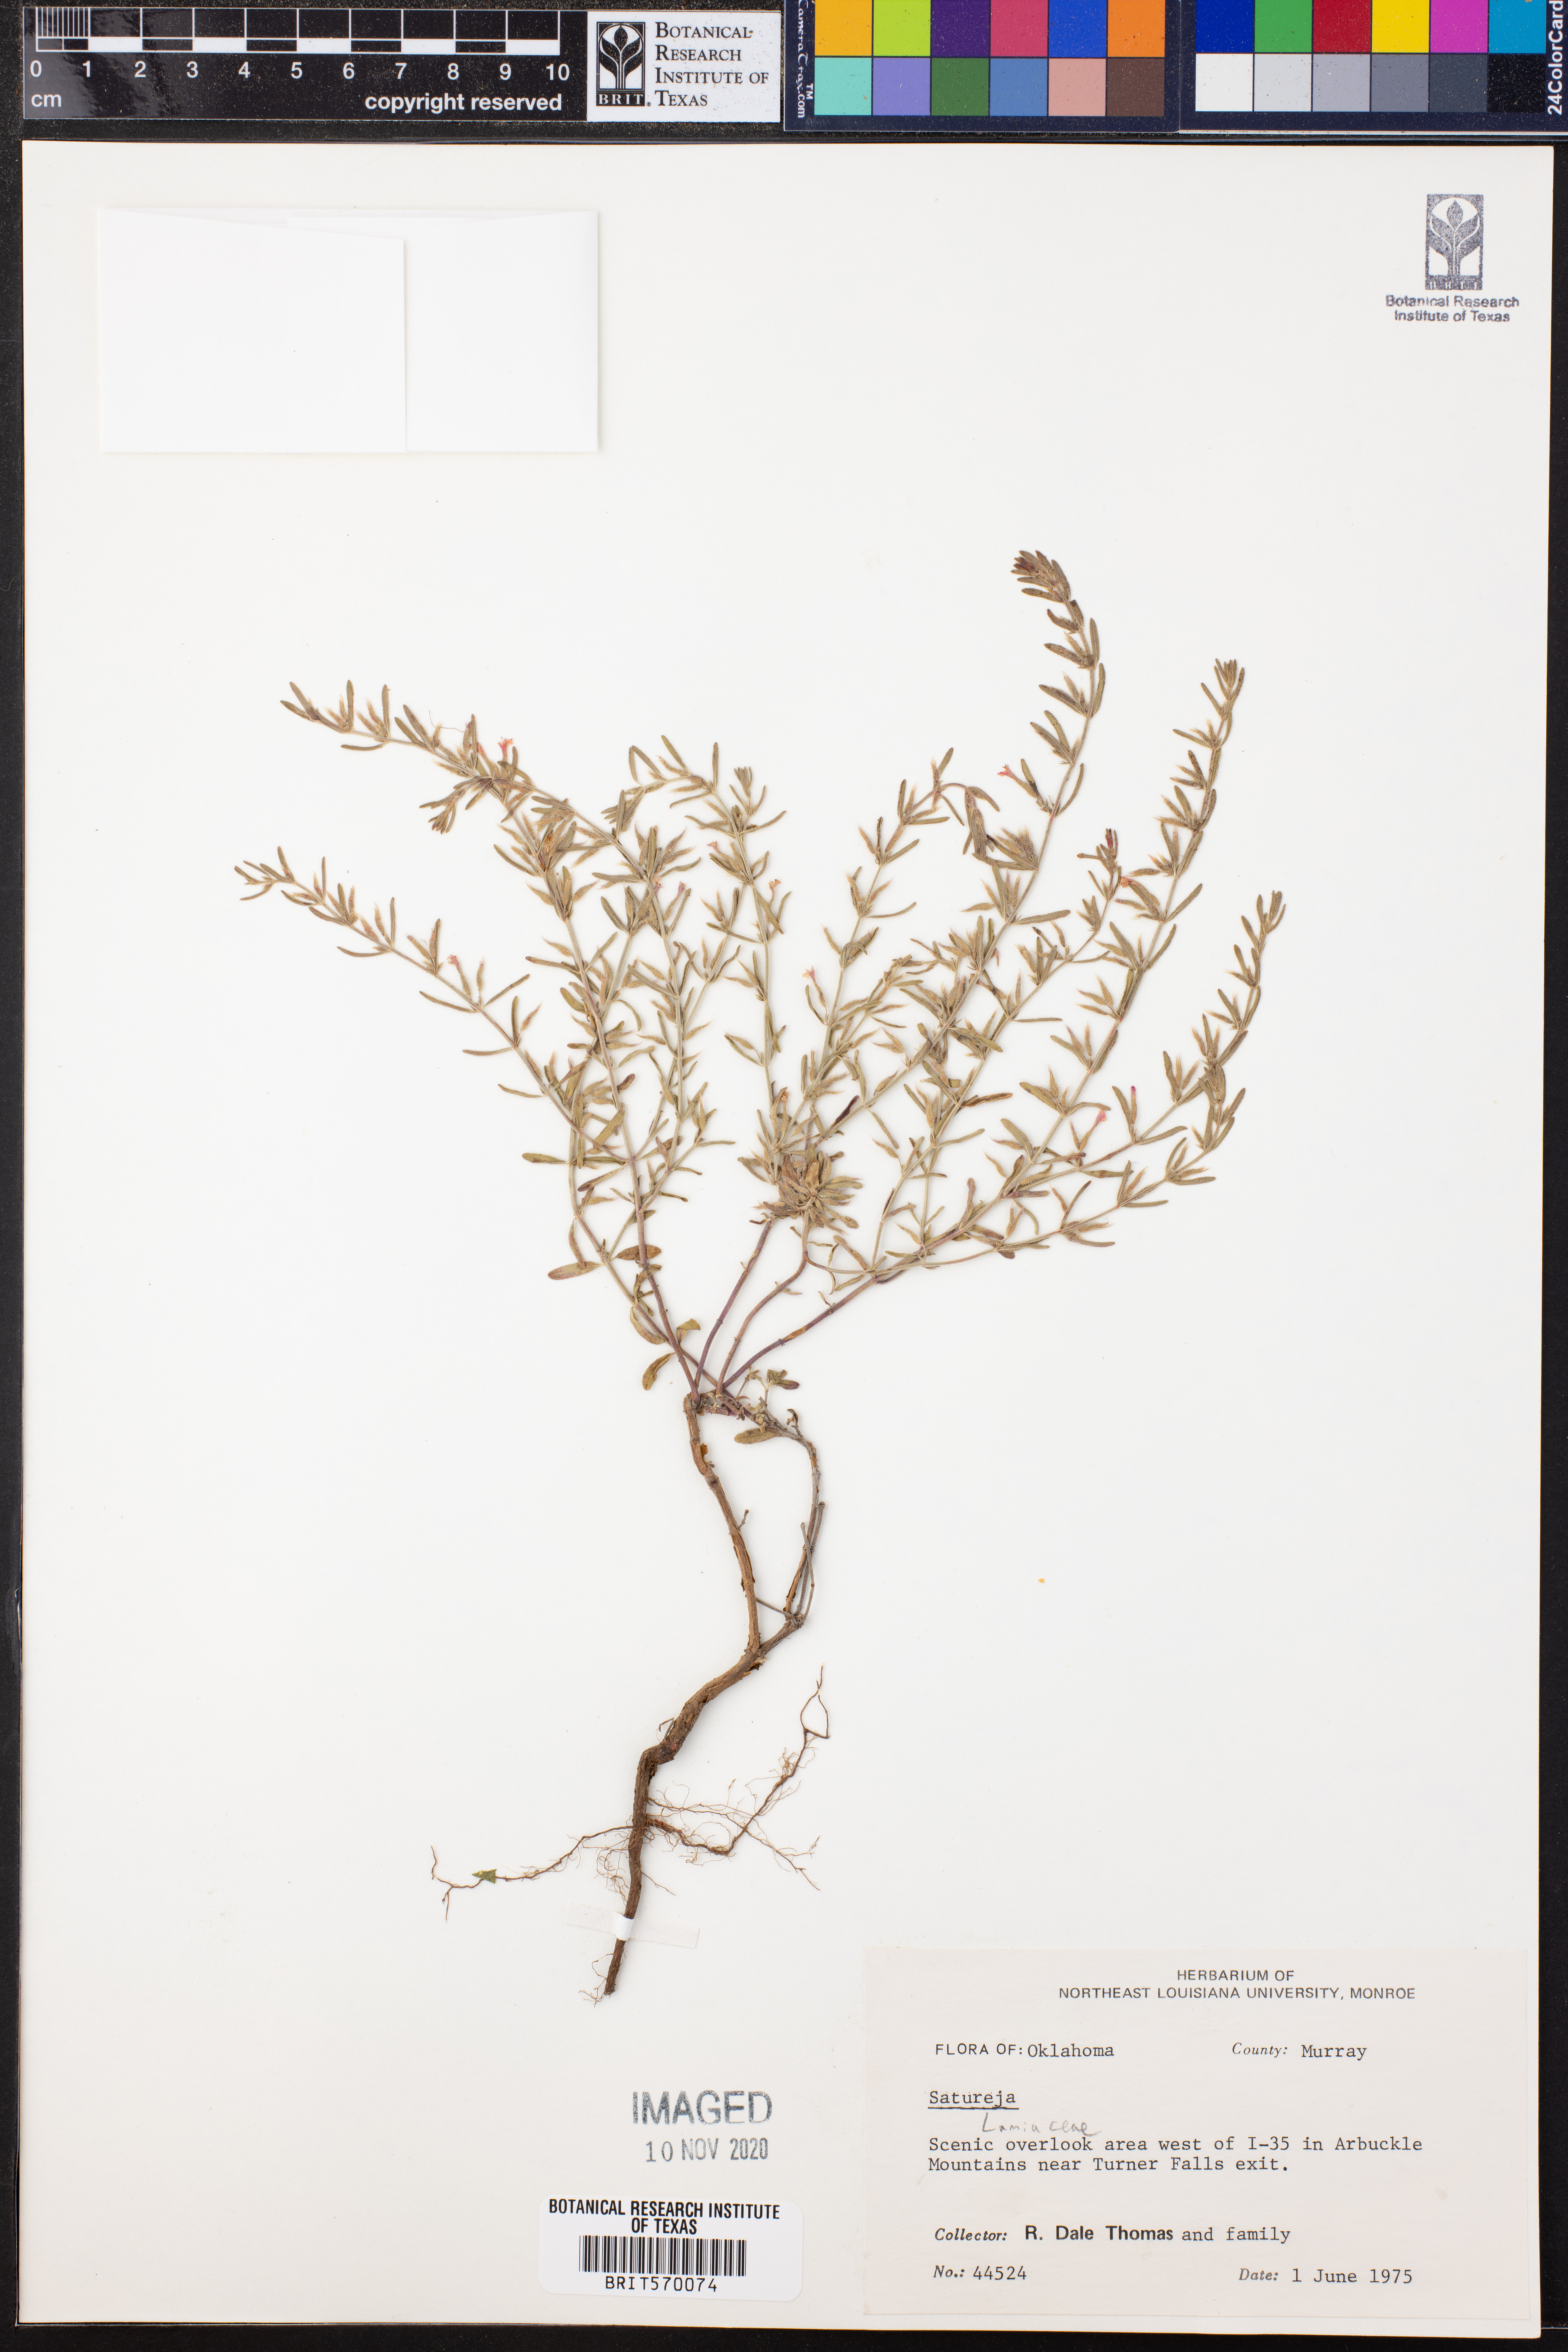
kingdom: Plantae
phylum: Tracheophyta
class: Magnoliopsida
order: Lamiales
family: Lamiaceae
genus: Satureja
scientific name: Satureja
